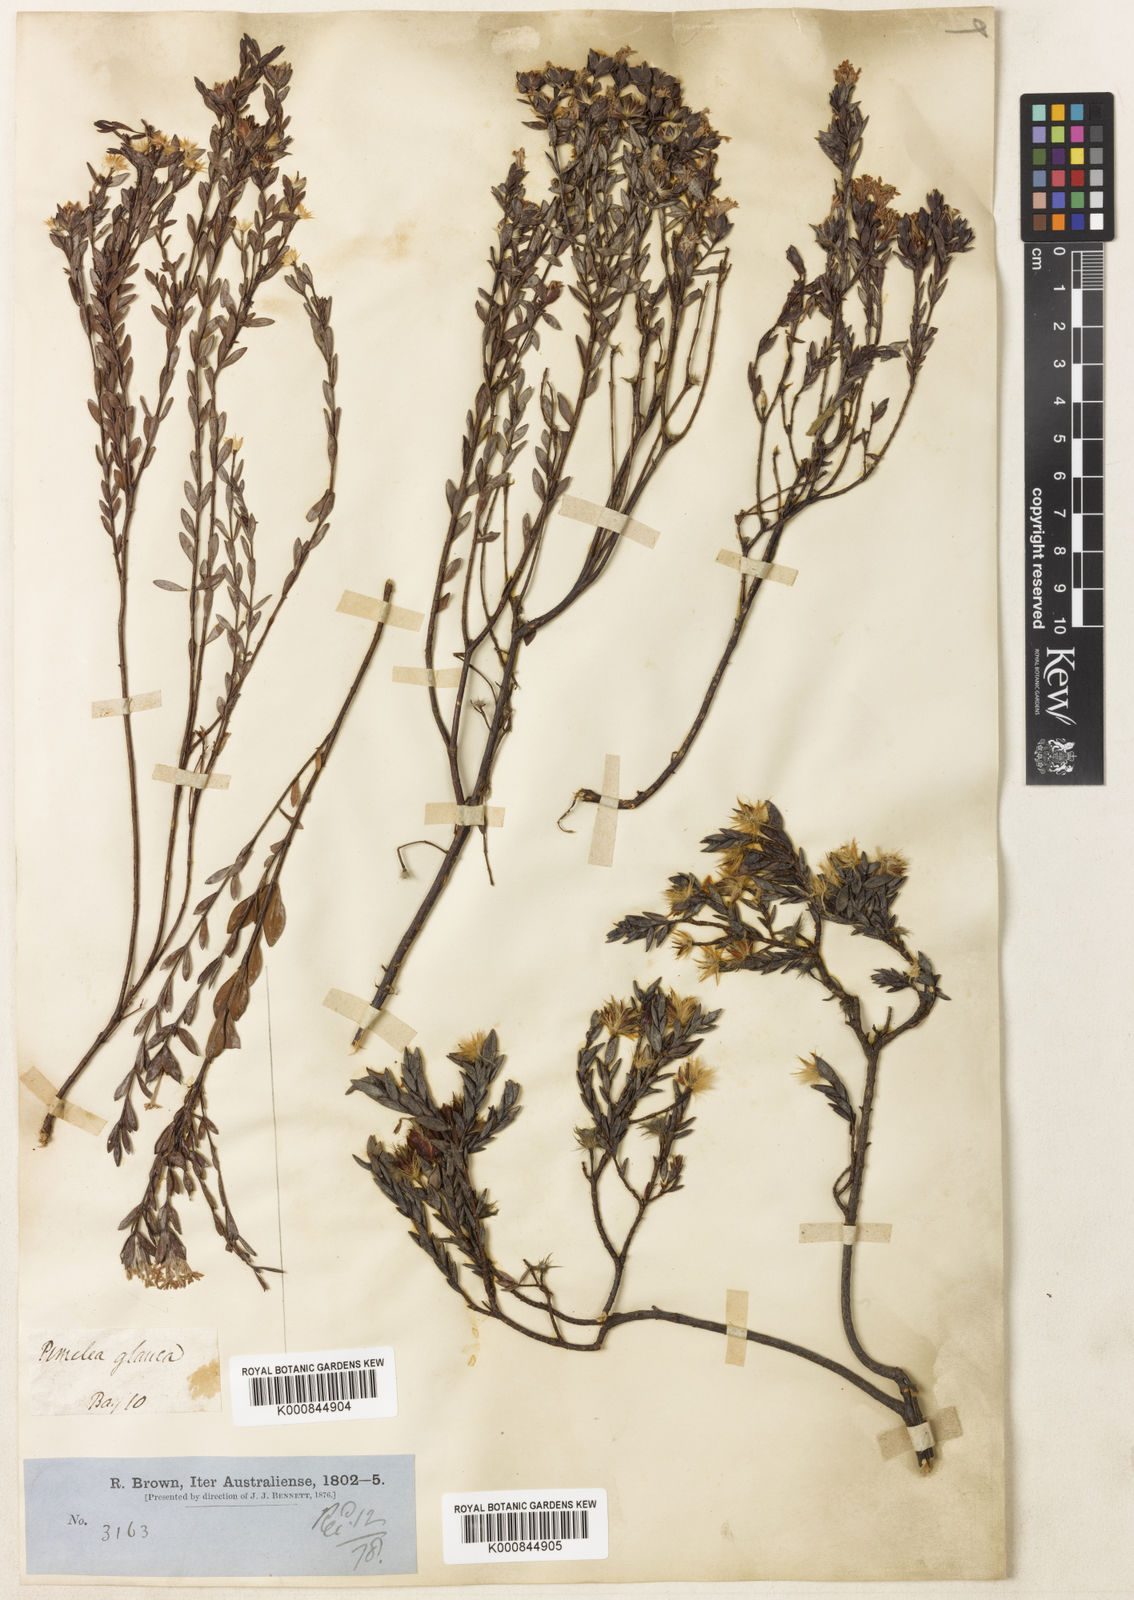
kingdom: Plantae
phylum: Tracheophyta
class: Magnoliopsida
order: Malvales
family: Thymelaeaceae
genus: Pimelea
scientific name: Pimelea glauca
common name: Smooth riceflower
